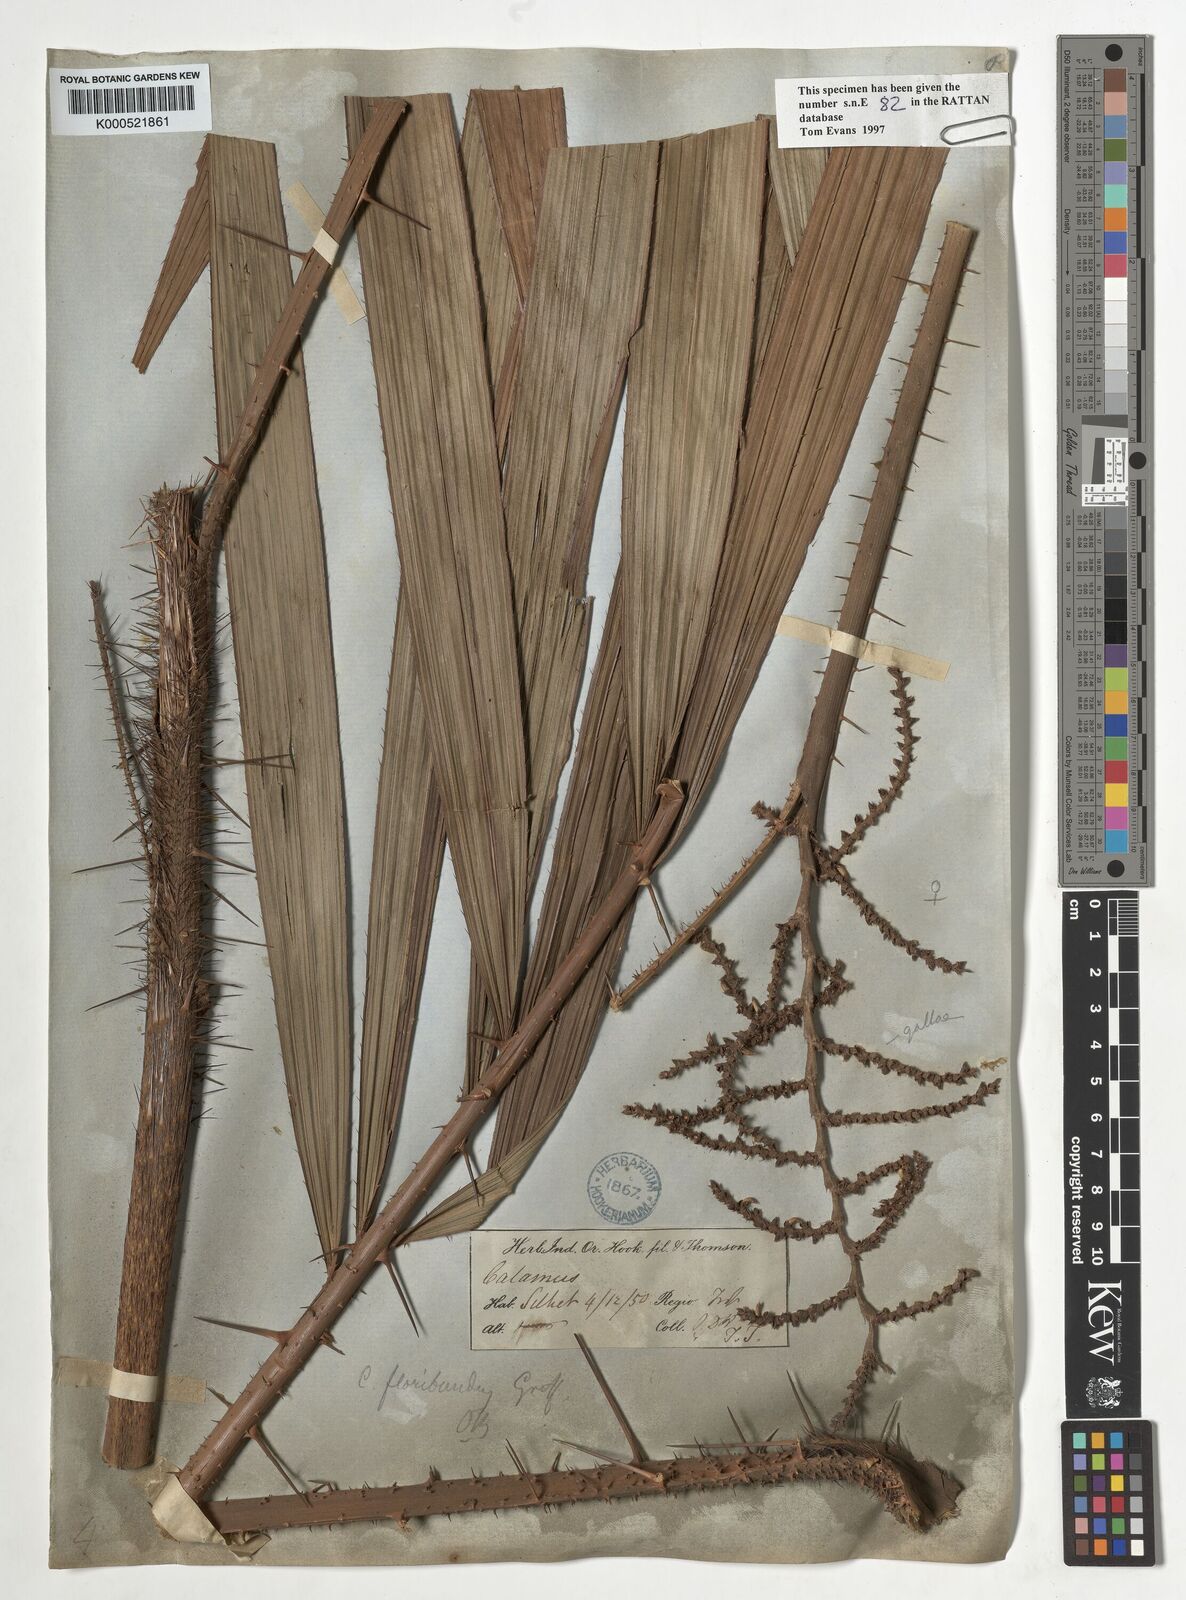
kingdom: Plantae
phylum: Tracheophyta
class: Liliopsida
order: Arecales
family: Arecaceae
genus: Calamus
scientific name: Calamus floribundus
